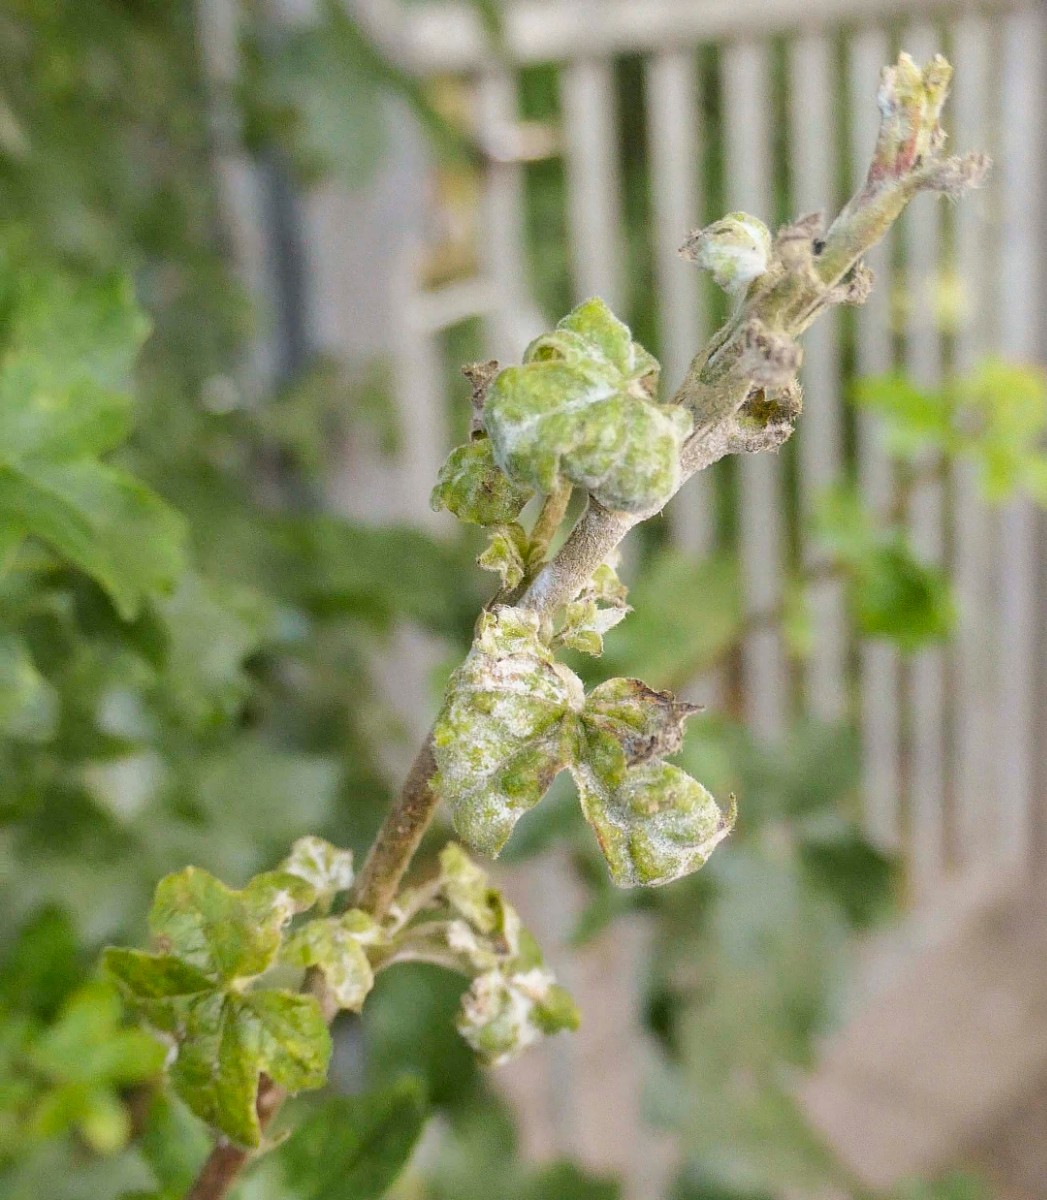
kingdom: Fungi
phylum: Ascomycota
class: Leotiomycetes
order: Helotiales
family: Erysiphaceae
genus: Sawadaea
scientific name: Sawadaea bicornis
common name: Maple mildew
